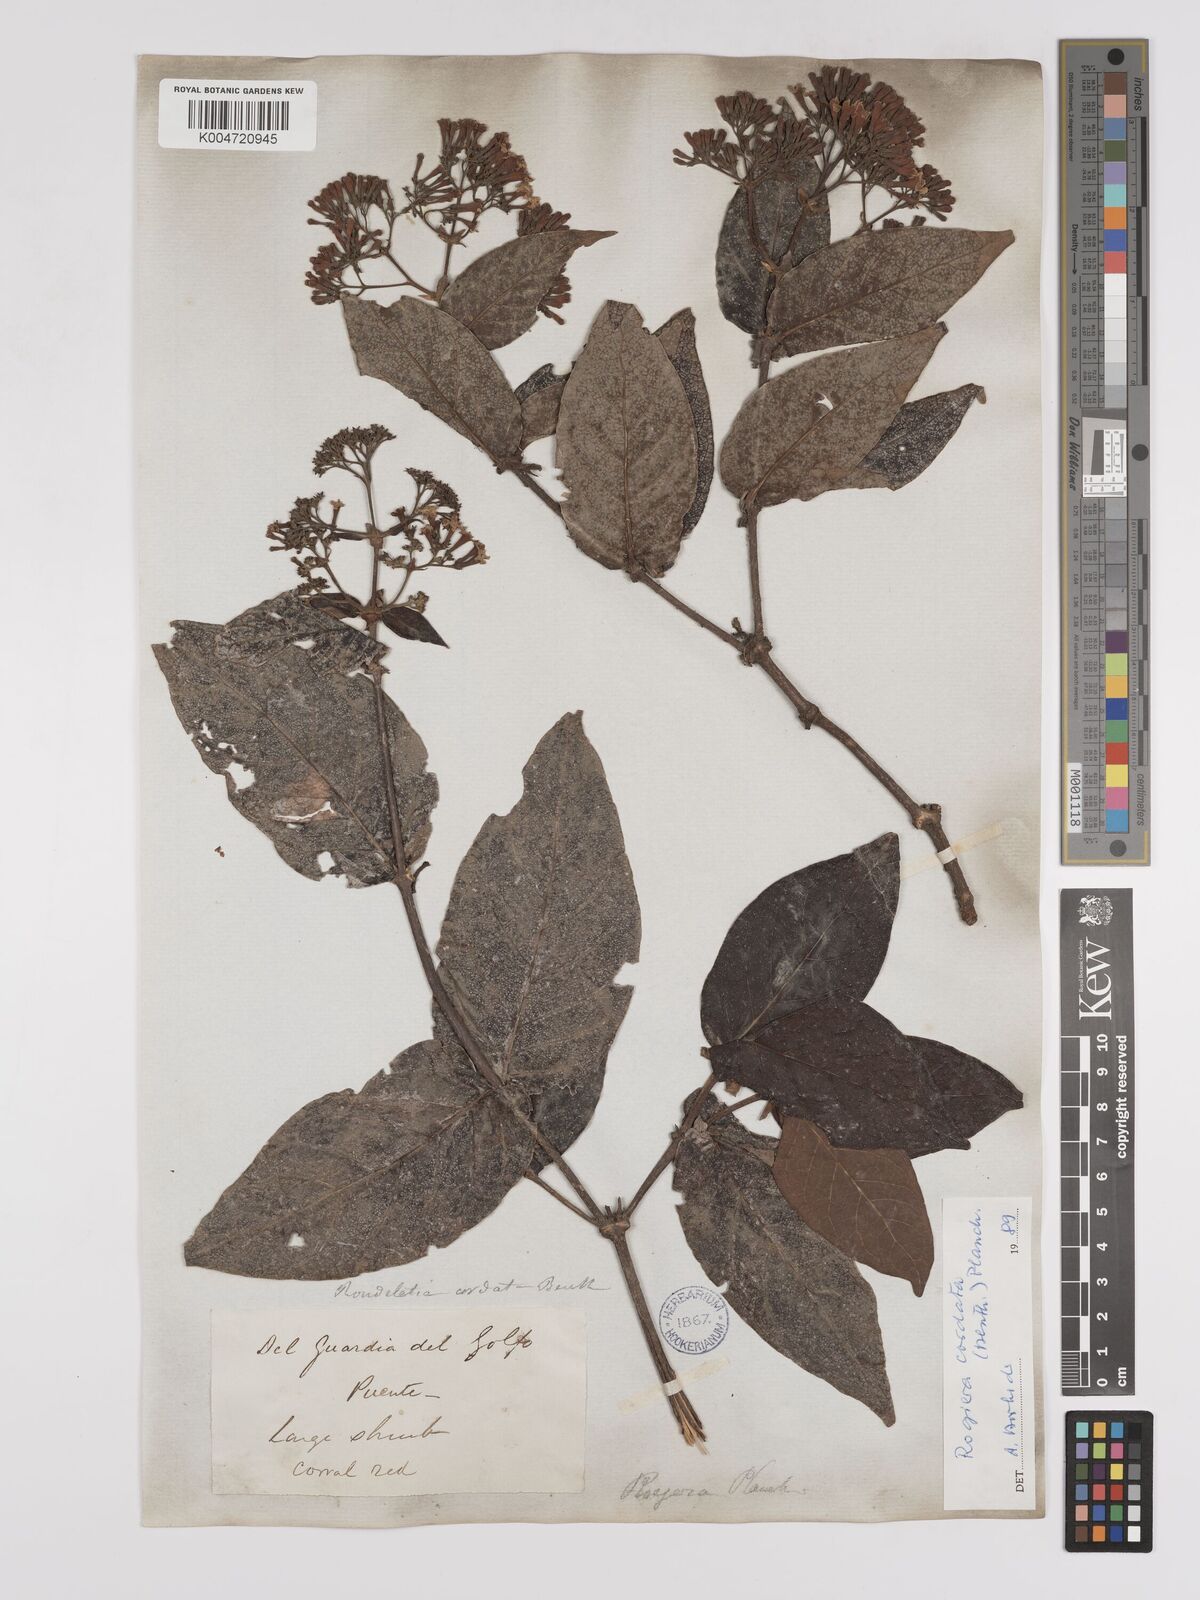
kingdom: Plantae
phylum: Tracheophyta
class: Magnoliopsida
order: Gentianales
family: Rubiaceae
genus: Rogiera
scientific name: Rogiera cordata
